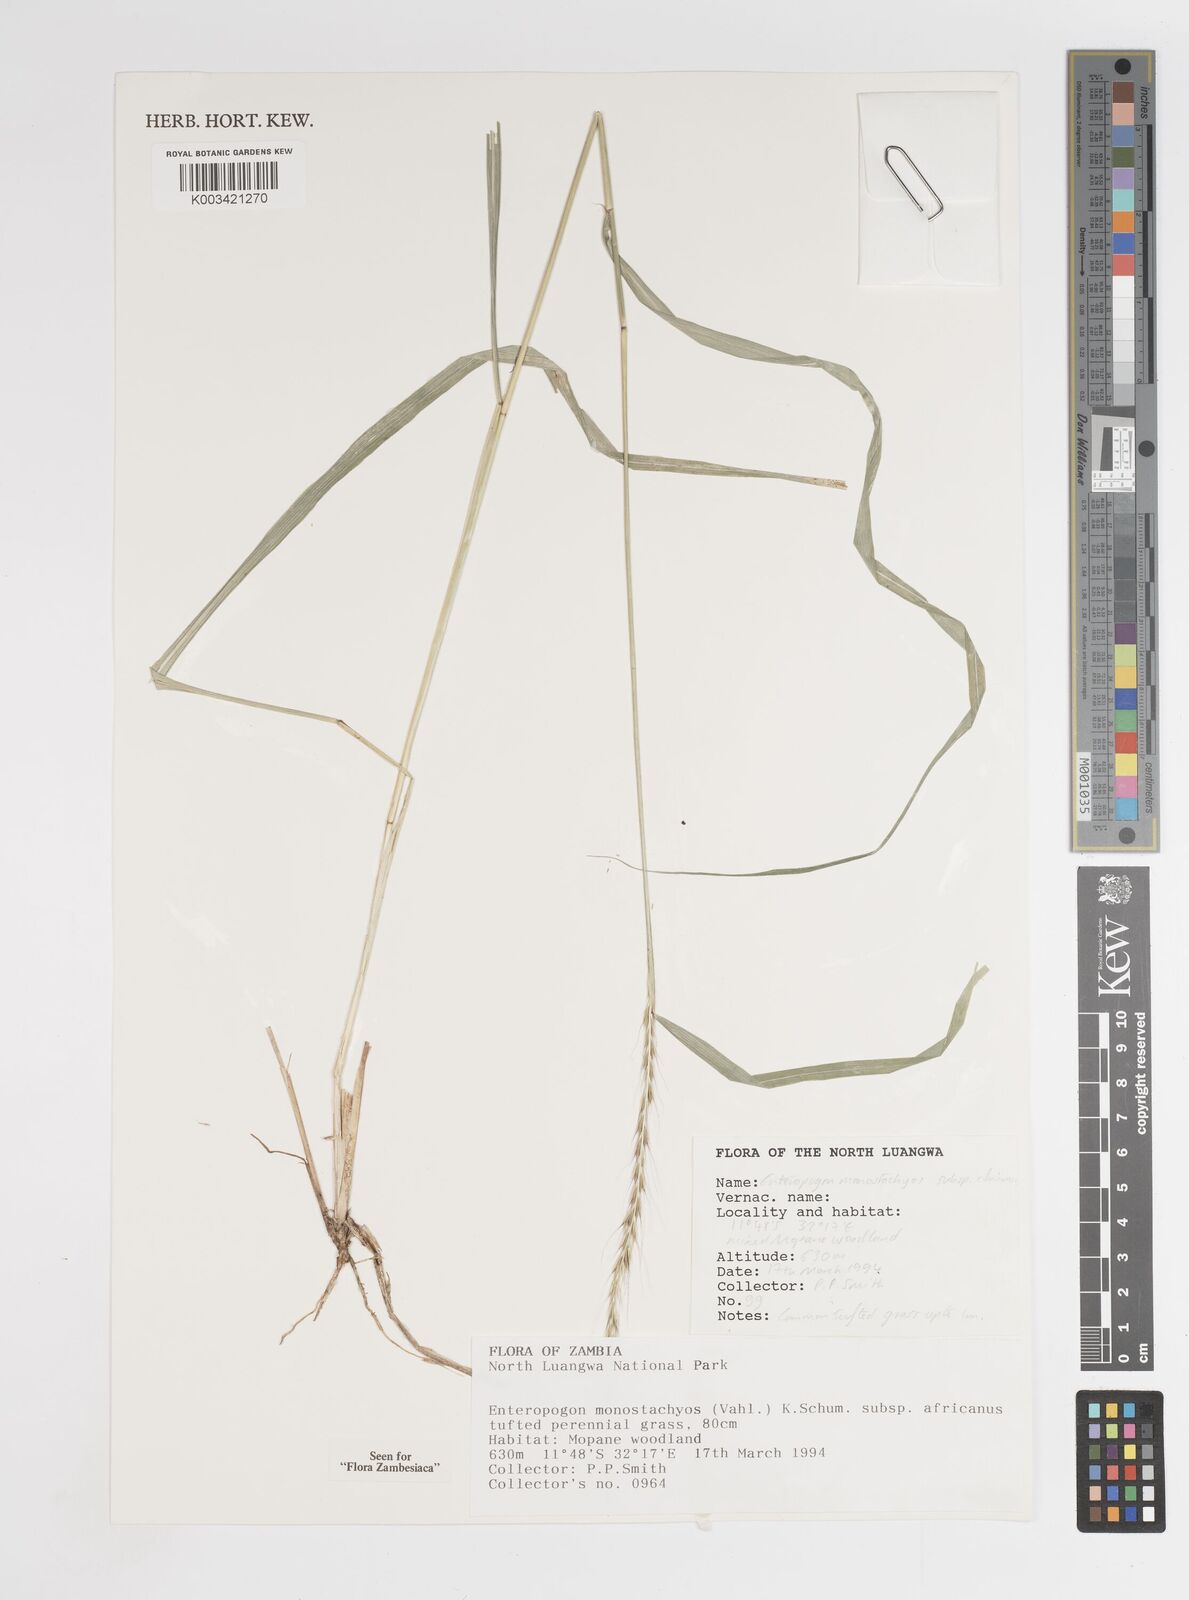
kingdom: Plantae
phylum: Tracheophyta
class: Liliopsida
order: Poales
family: Poaceae
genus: Enteropogon
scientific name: Enteropogon monostachyos
